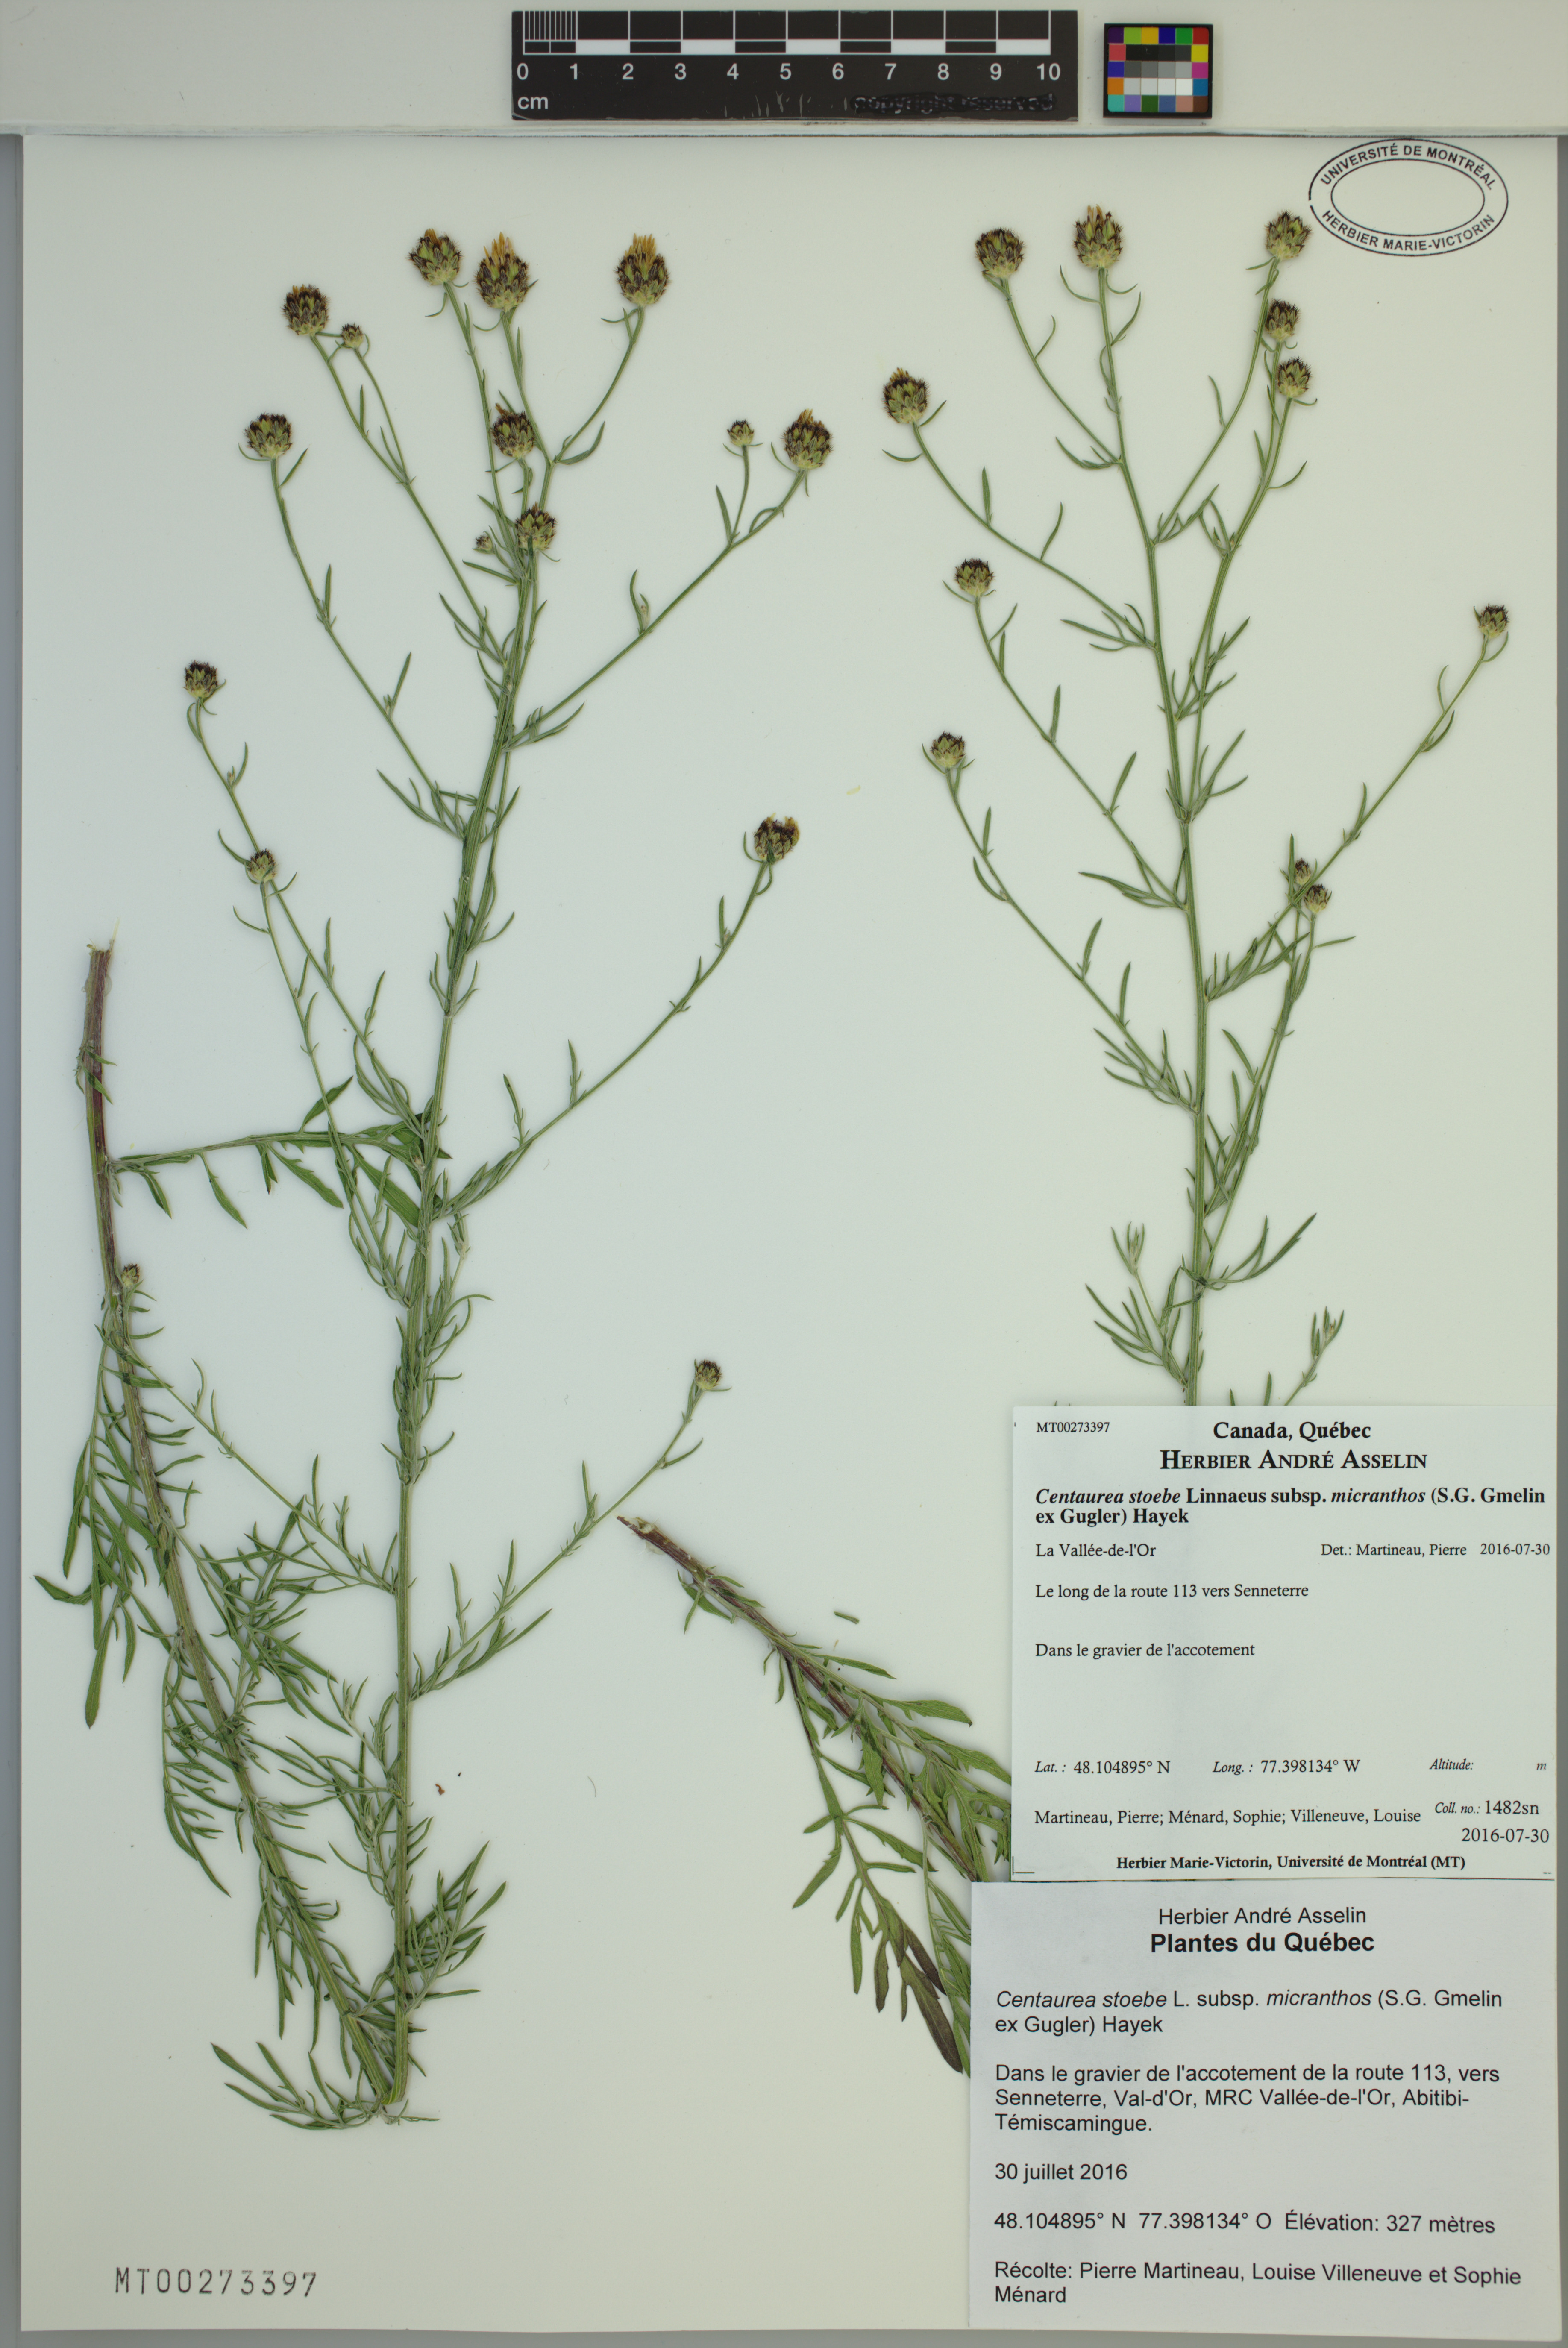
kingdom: Plantae
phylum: Tracheophyta
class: Magnoliopsida
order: Asterales
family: Asteraceae
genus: Centaurea
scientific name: Centaurea australis
